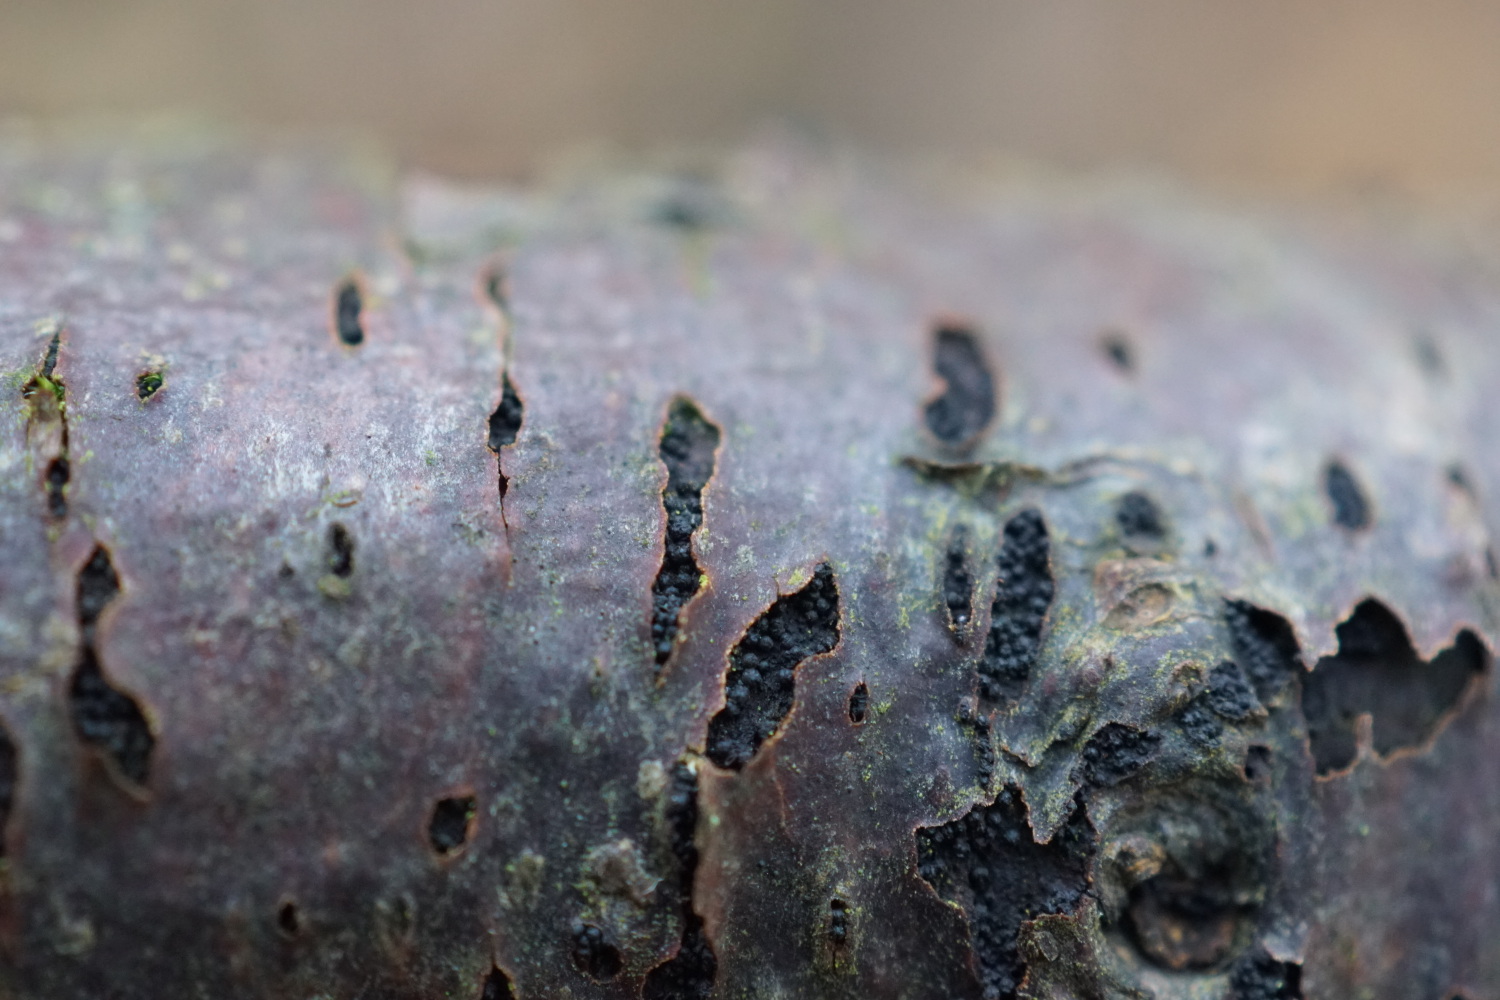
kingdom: Fungi
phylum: Ascomycota
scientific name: Ascomycota
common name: sæksvampe
